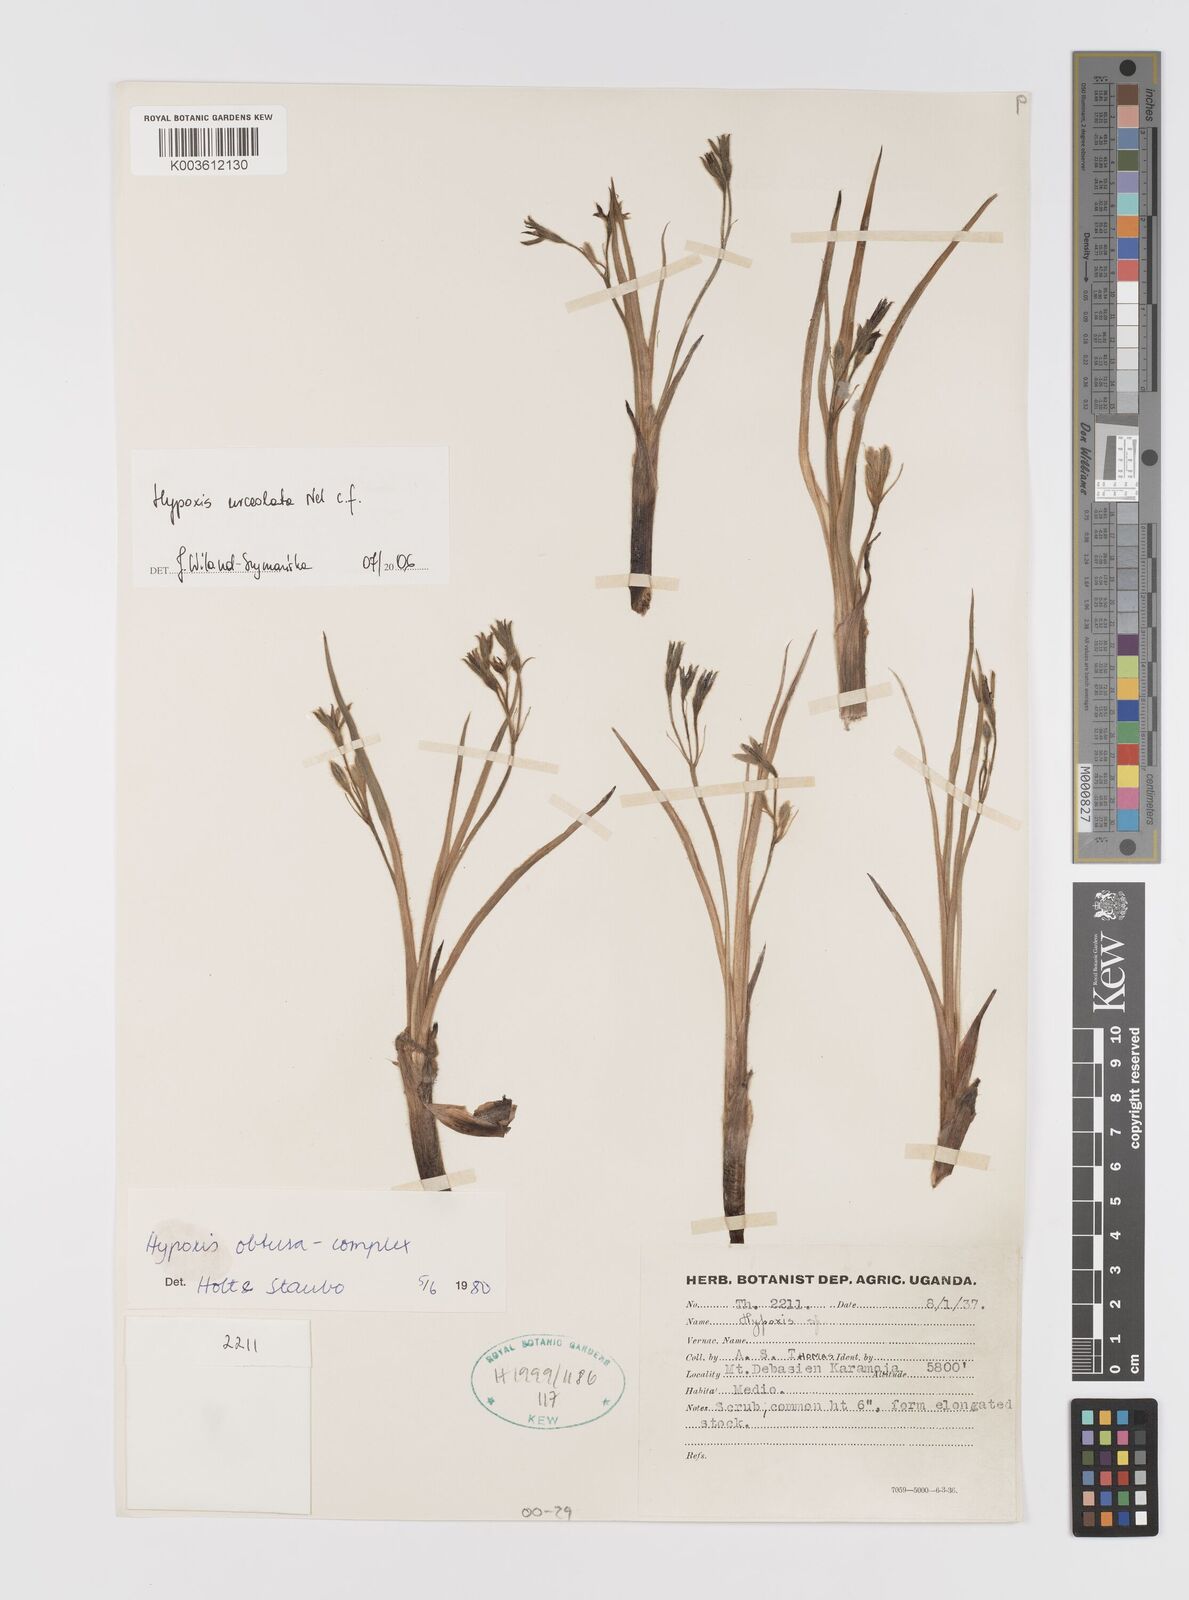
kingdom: Plantae
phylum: Tracheophyta
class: Liliopsida
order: Asparagales
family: Hypoxidaceae
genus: Hypoxis
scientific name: Hypoxis urceolata
